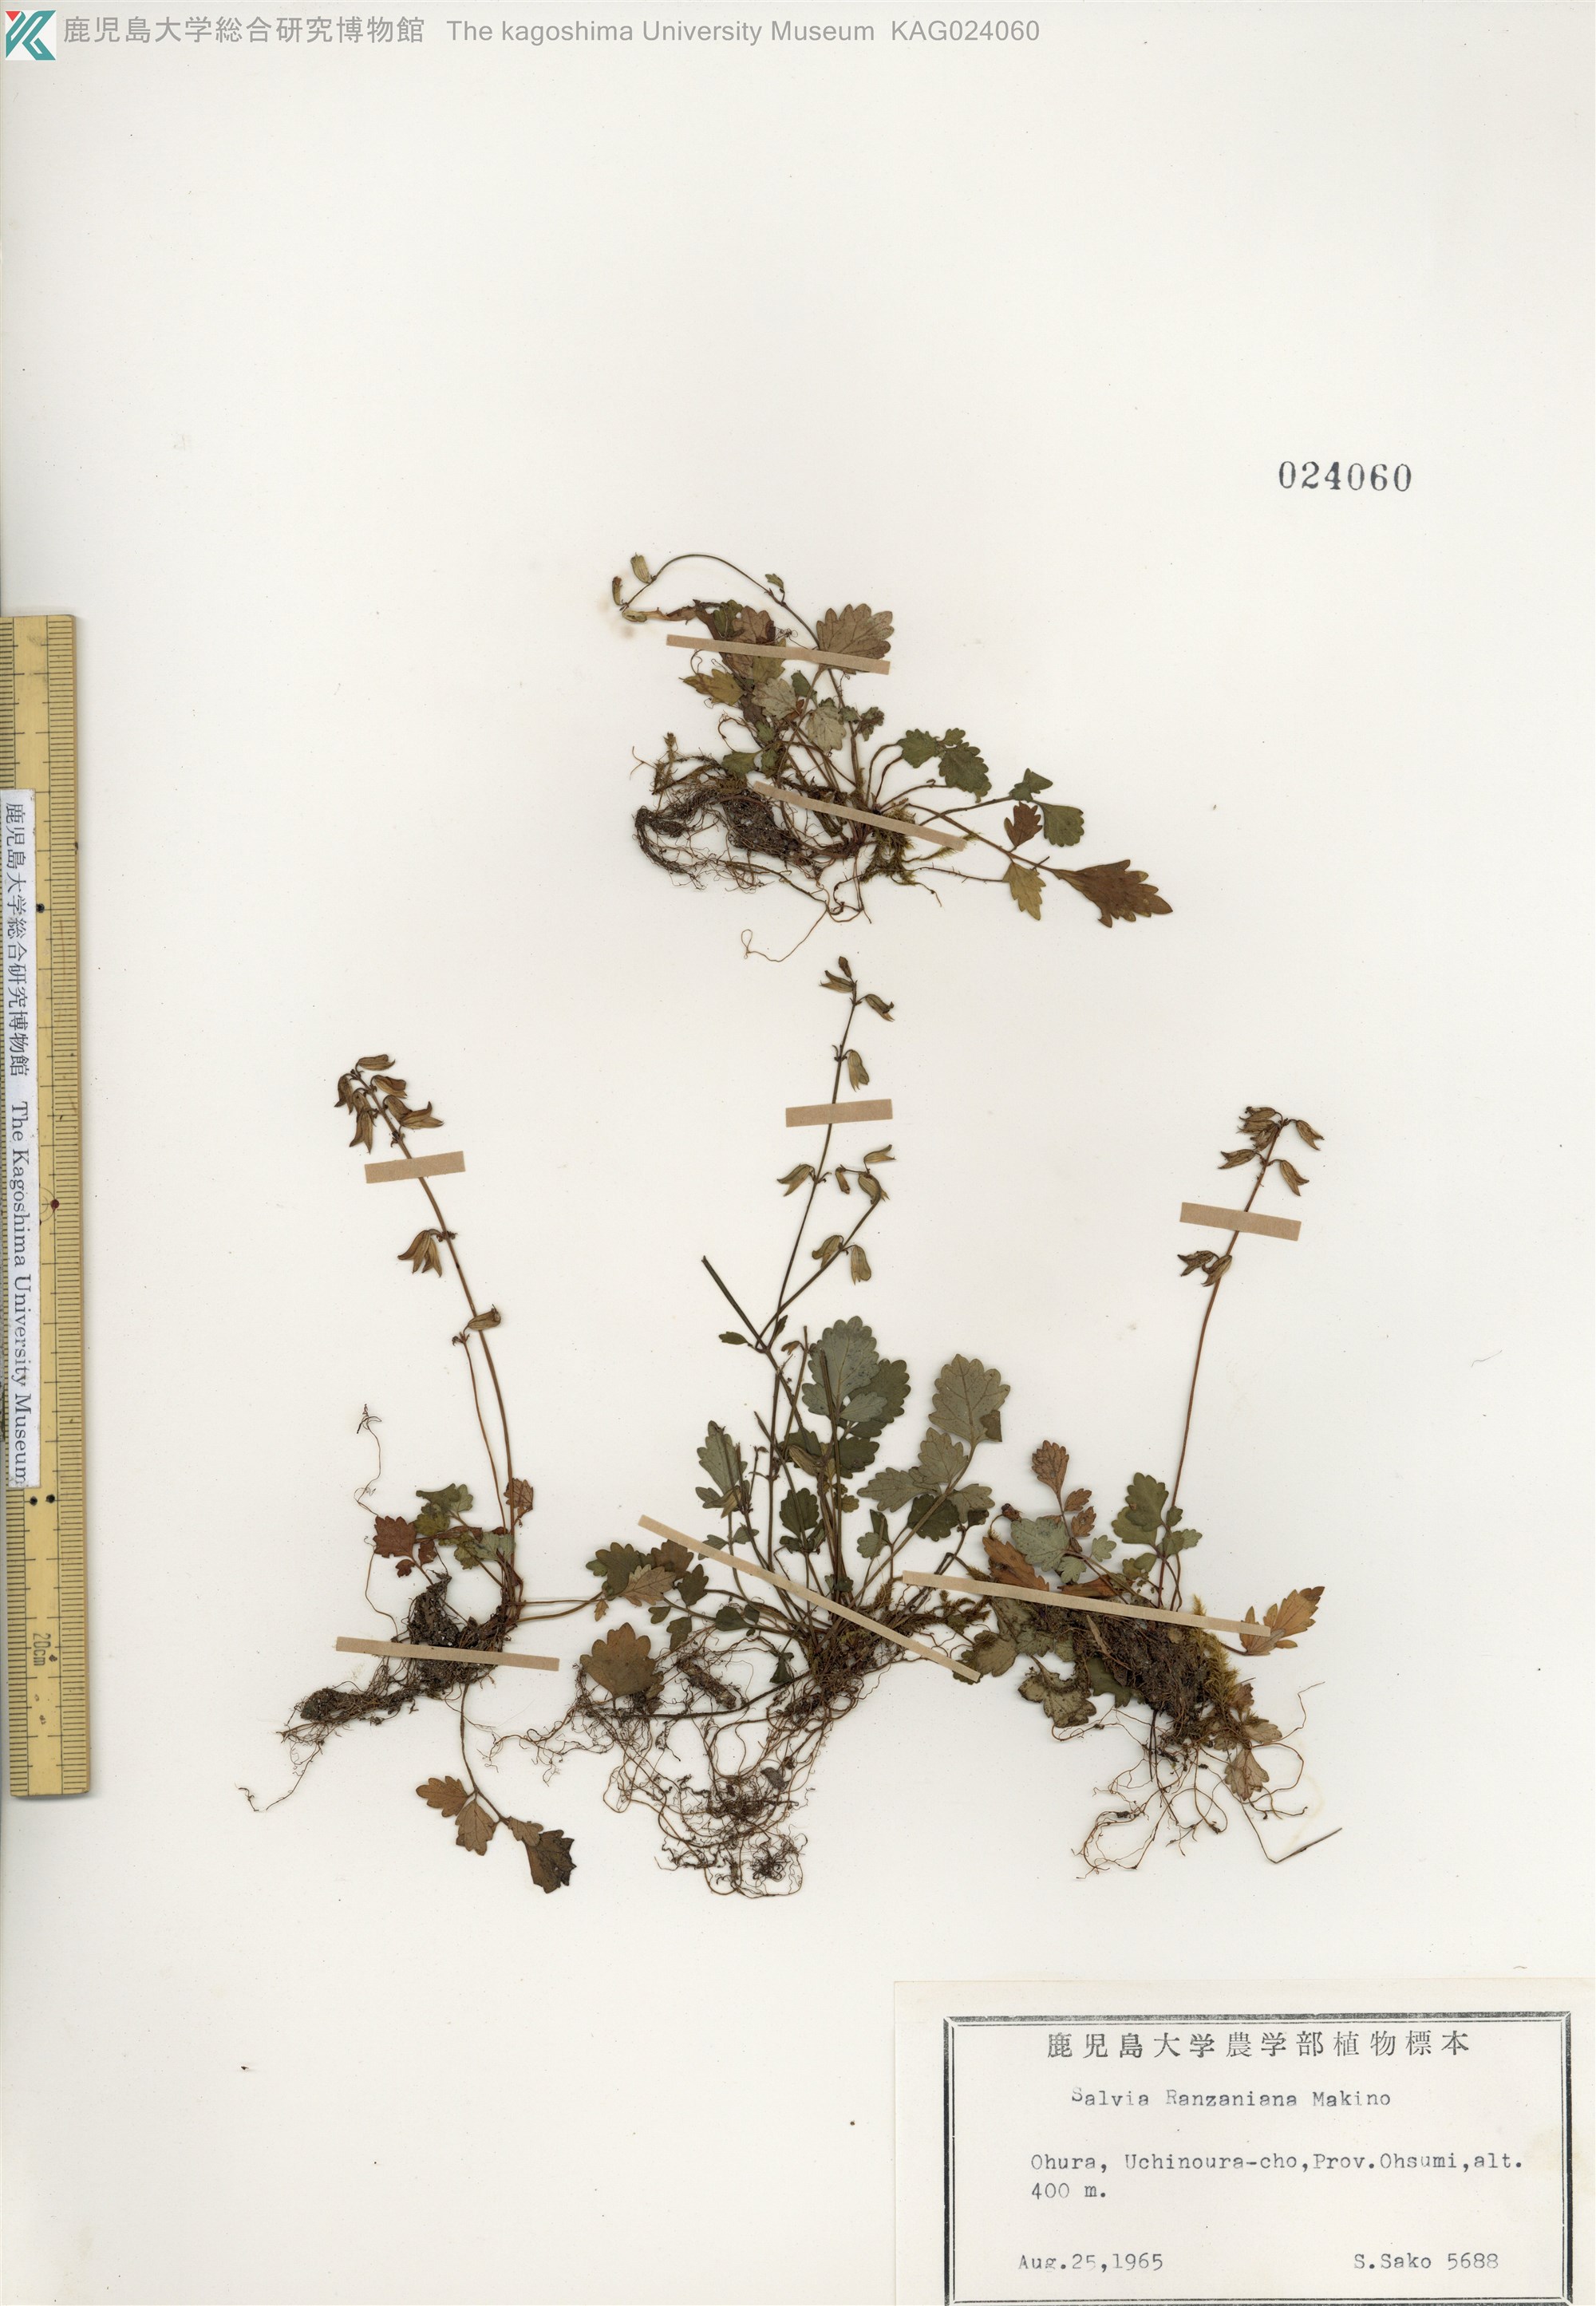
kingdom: Plantae
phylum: Tracheophyta
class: Magnoliopsida
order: Lamiales
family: Lamiaceae
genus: Salvia
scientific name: Salvia ranzaniana
